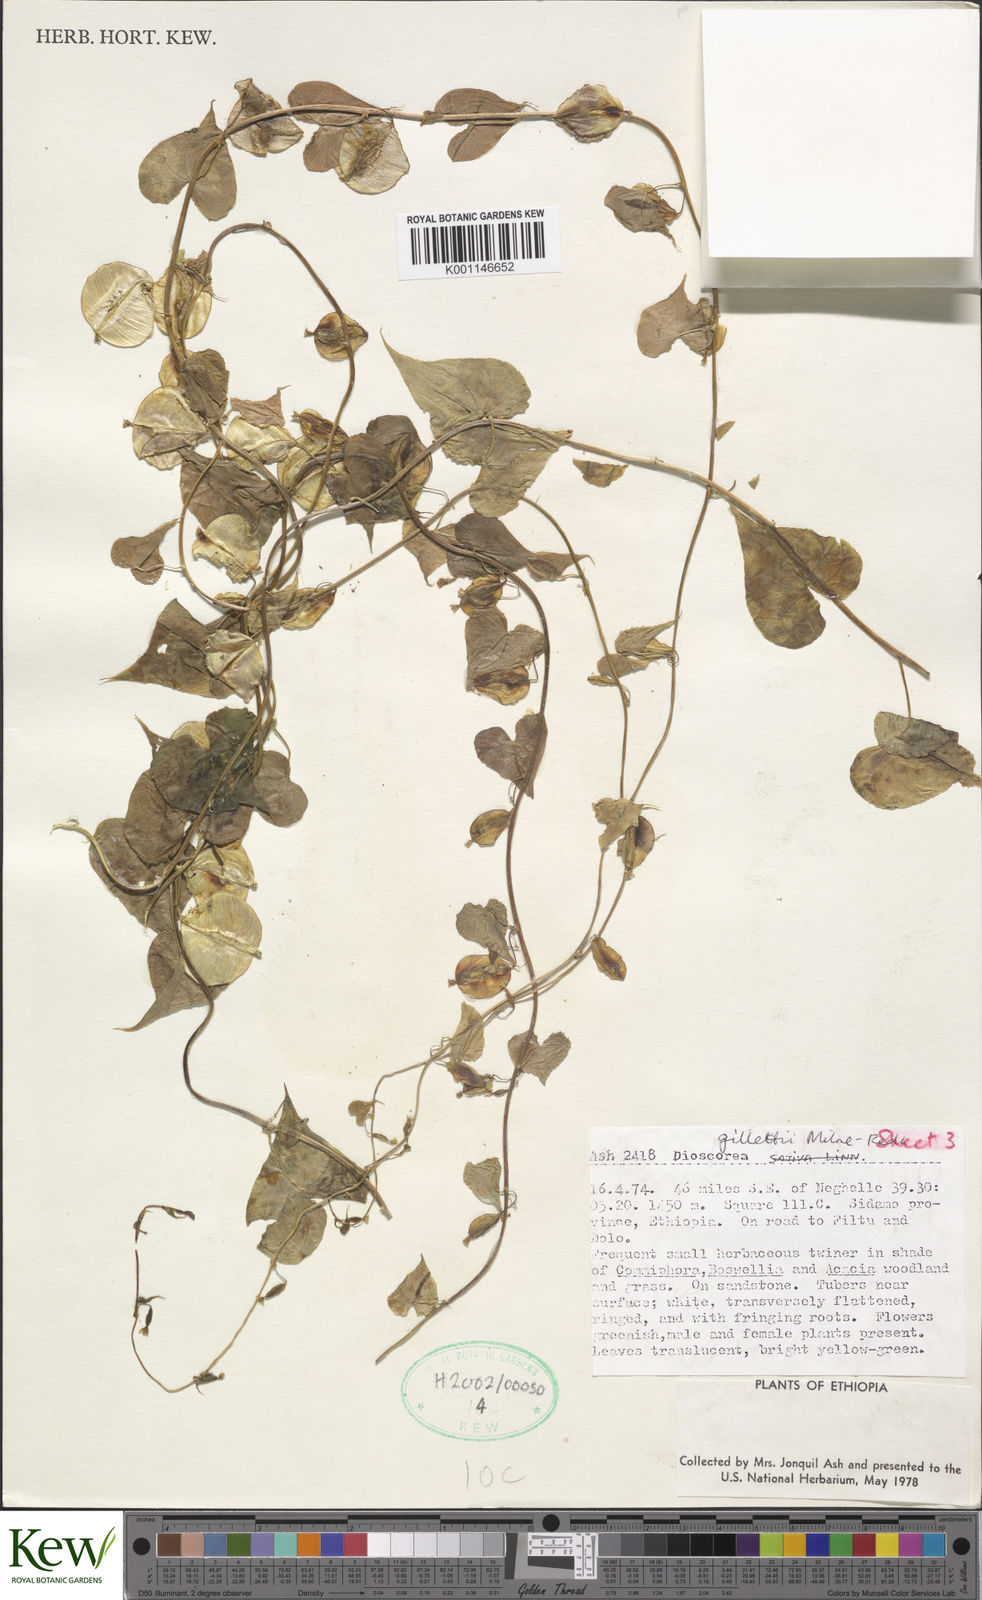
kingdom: Plantae
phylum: Tracheophyta
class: Liliopsida
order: Dioscoreales
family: Dioscoreaceae
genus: Dioscorea
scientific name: Dioscorea gillettii
